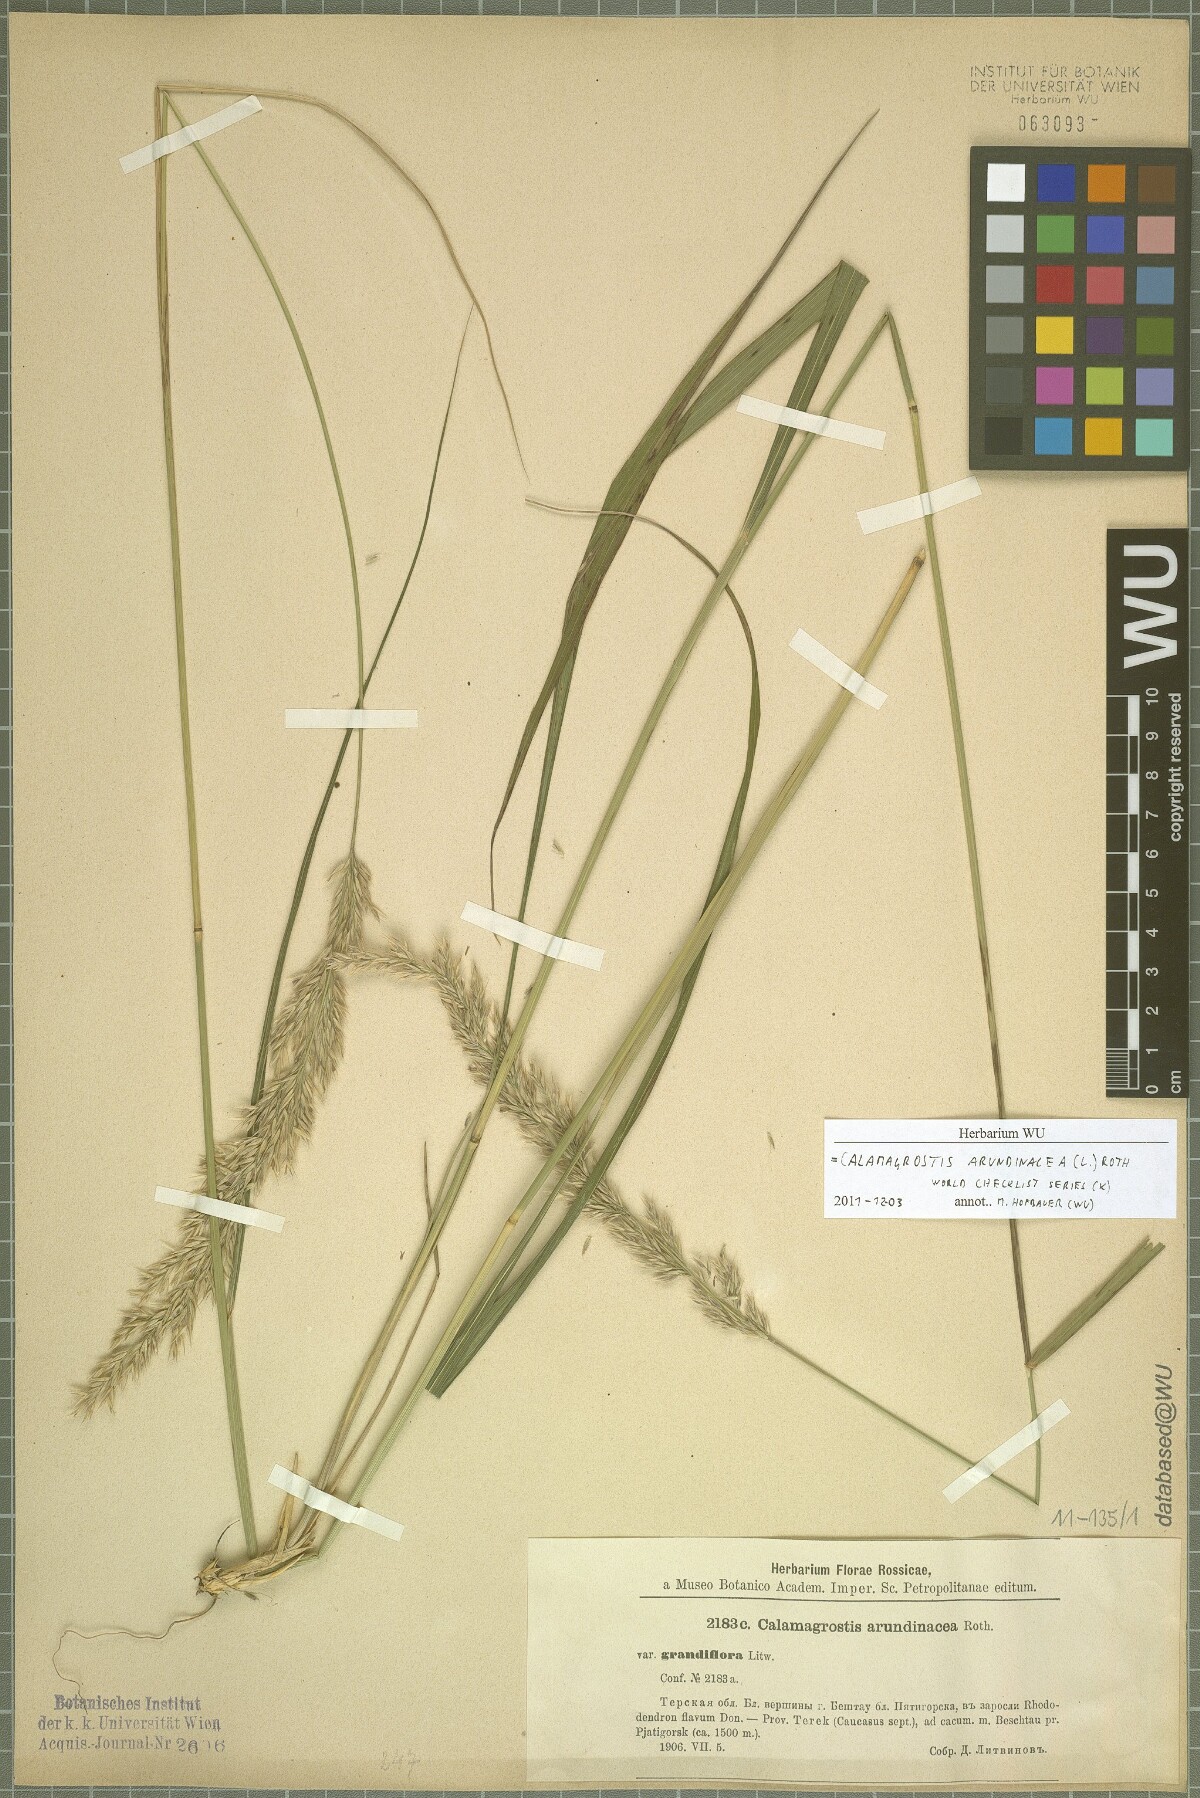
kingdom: Plantae
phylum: Tracheophyta
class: Liliopsida
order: Poales
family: Poaceae
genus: Calamagrostis
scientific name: Calamagrostis arundinacea
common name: Metskastik
